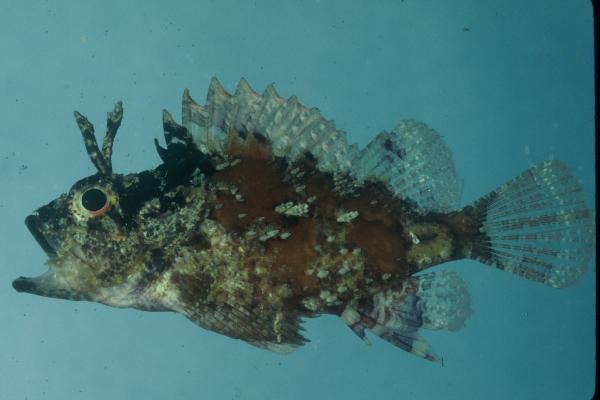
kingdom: Animalia
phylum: Chordata
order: Scorpaeniformes
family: Scorpaenidae
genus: Parascorpaena
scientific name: Parascorpaena mossambica
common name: Mozambique scorpionfish
